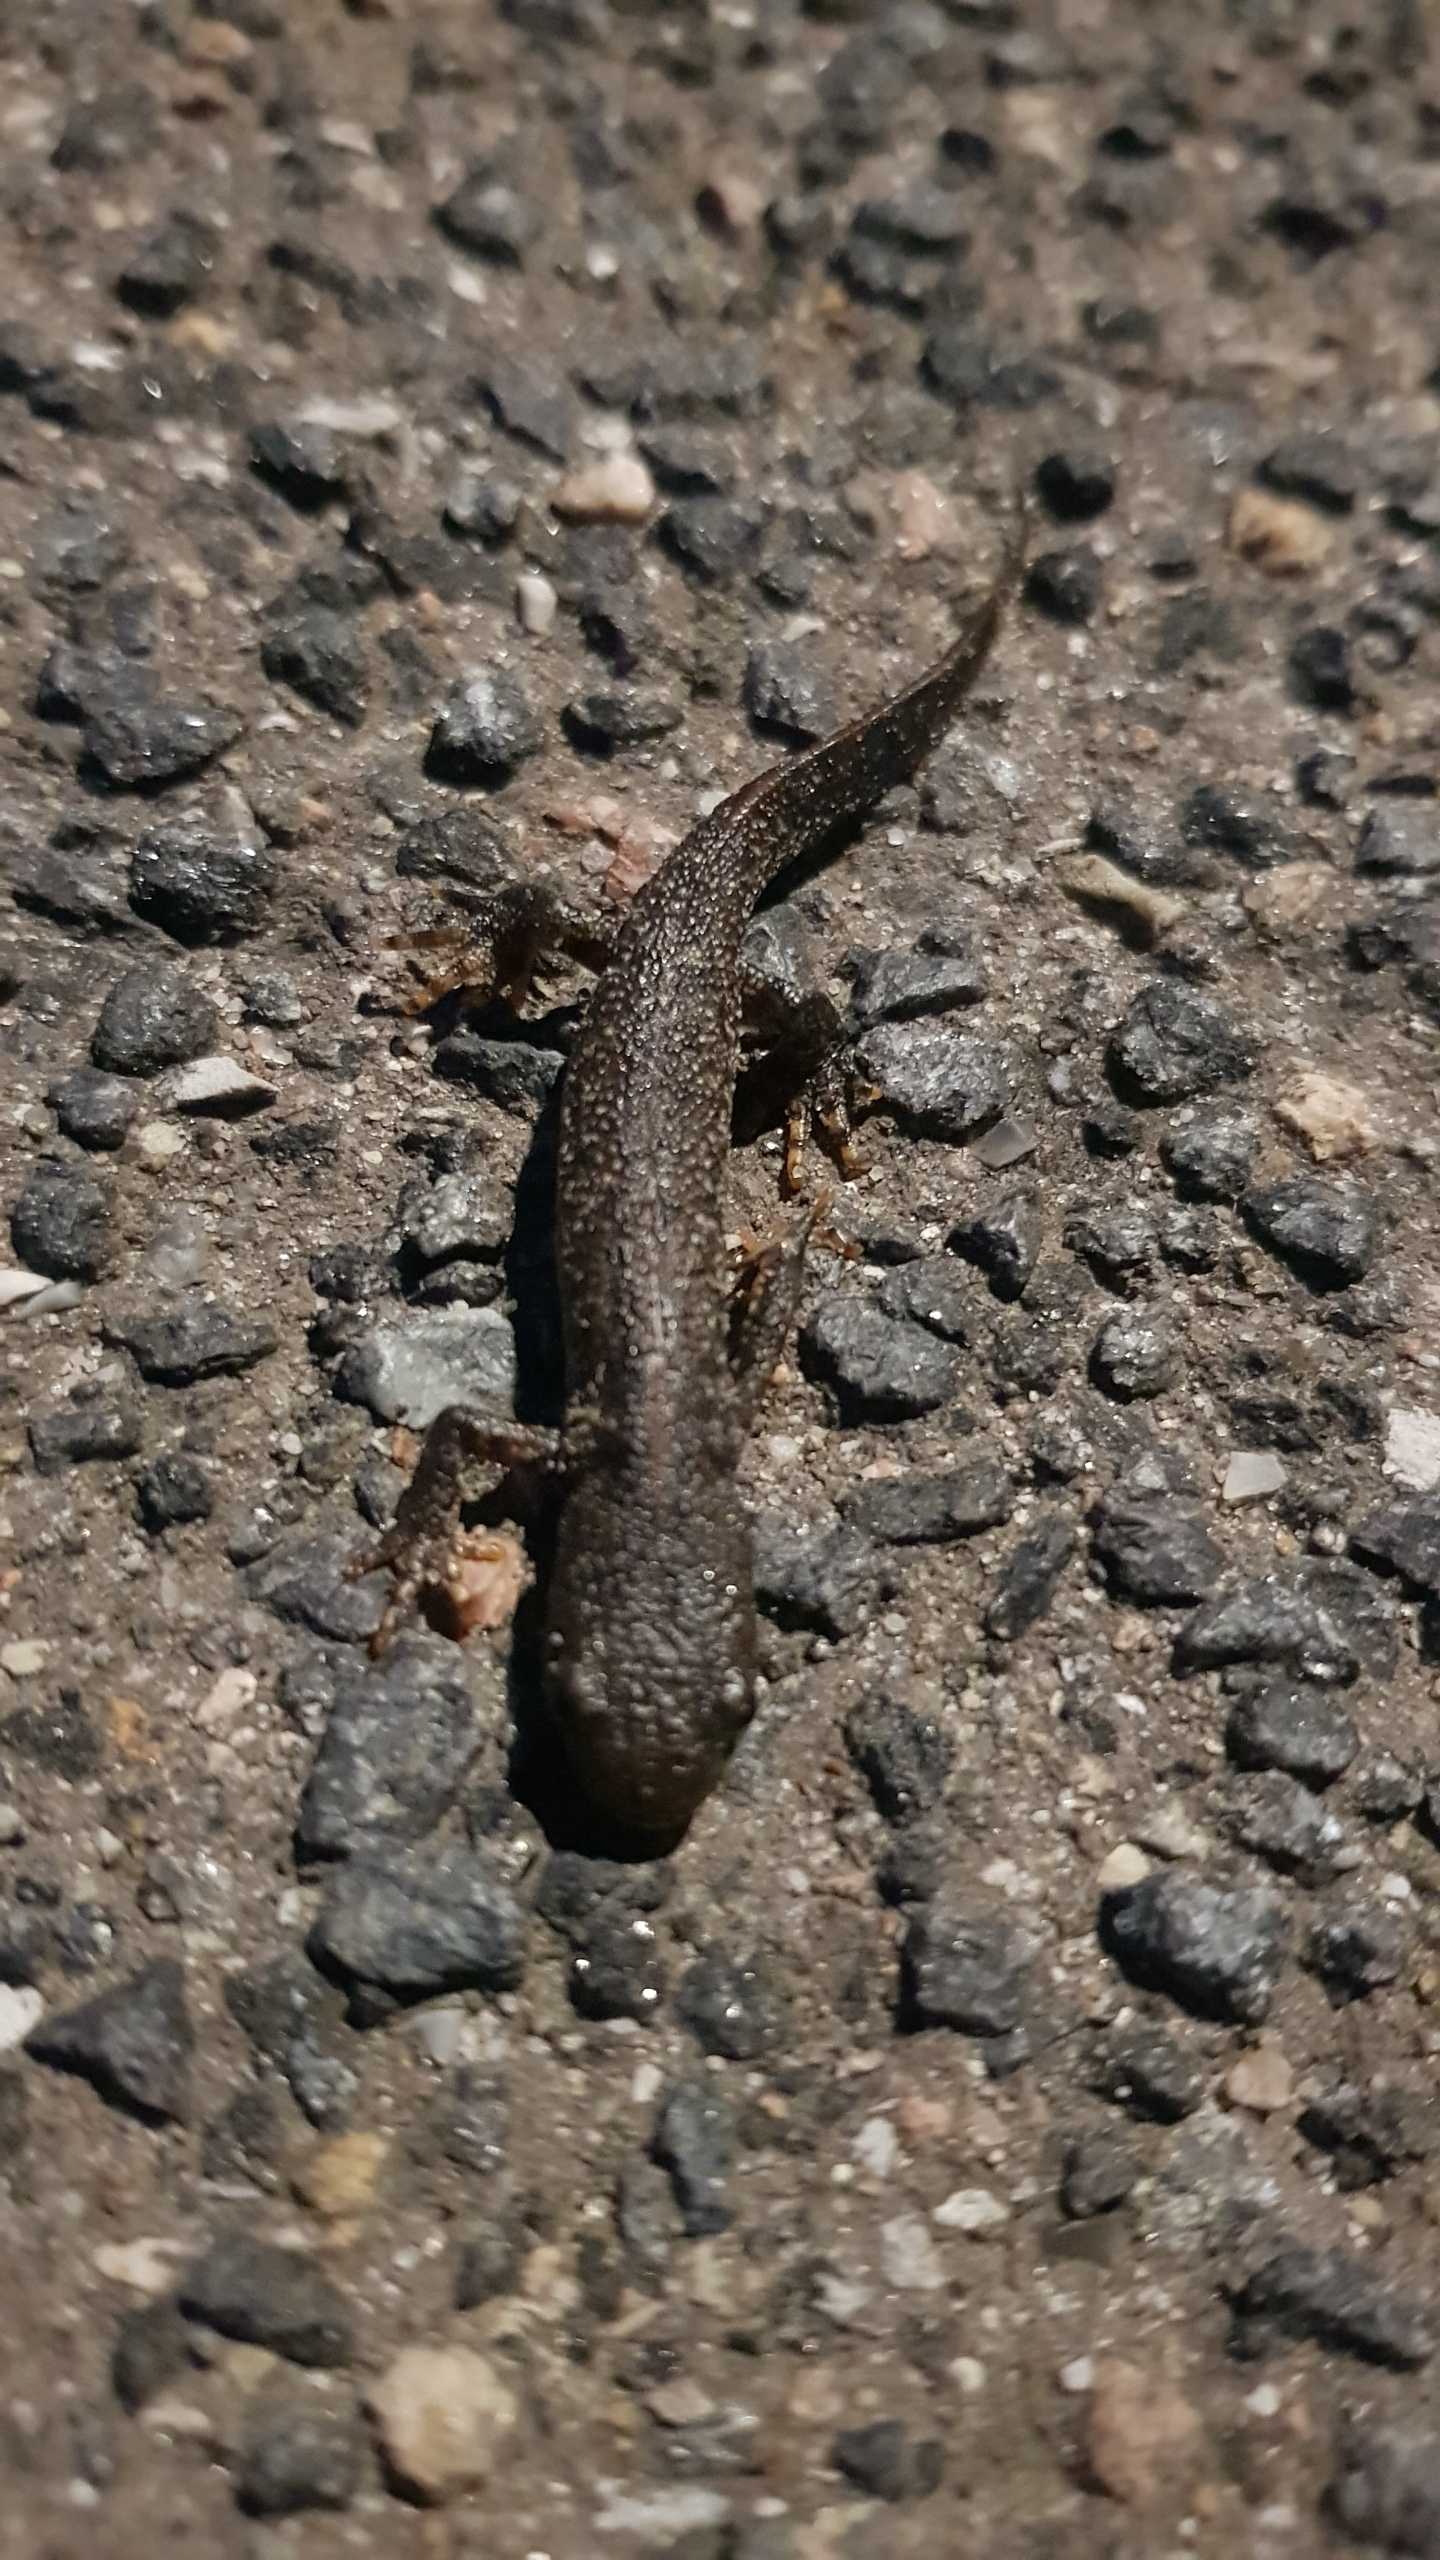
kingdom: Animalia
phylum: Chordata
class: Amphibia
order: Caudata
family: Salamandridae
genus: Triturus
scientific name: Triturus cristatus
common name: Stor vandsalamander
